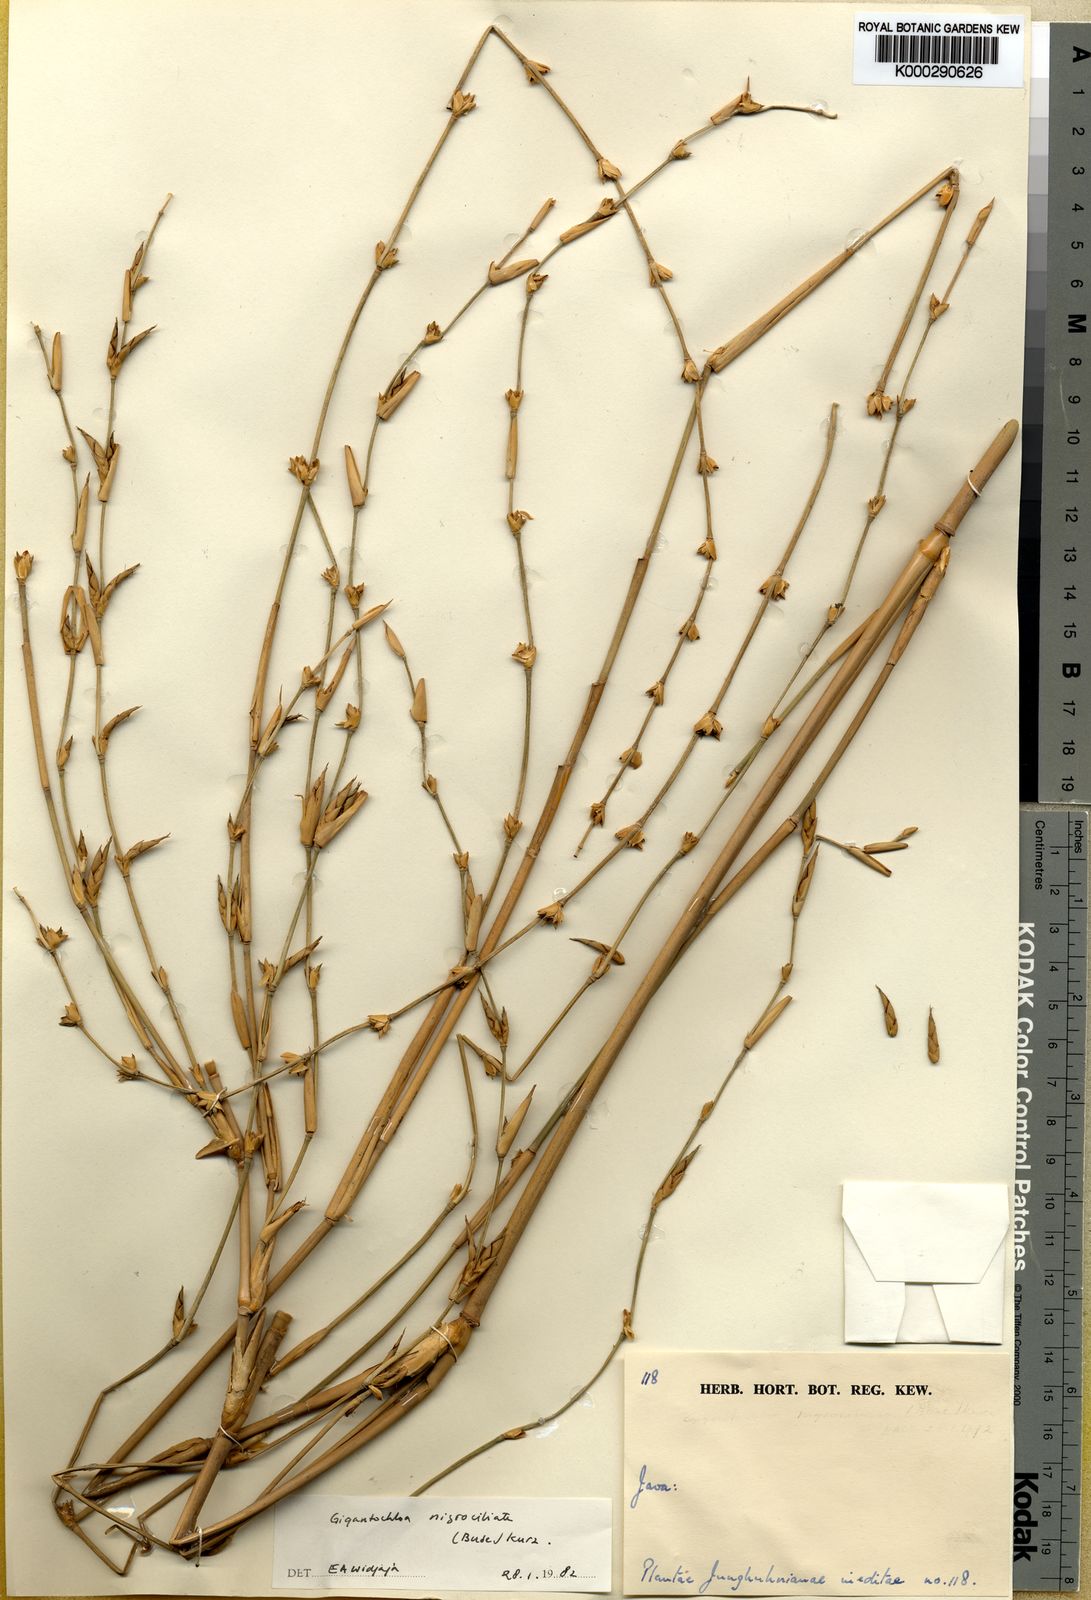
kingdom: Plantae
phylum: Tracheophyta
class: Liliopsida
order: Poales
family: Poaceae
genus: Gigantochloa
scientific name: Gigantochloa nigrociliata
